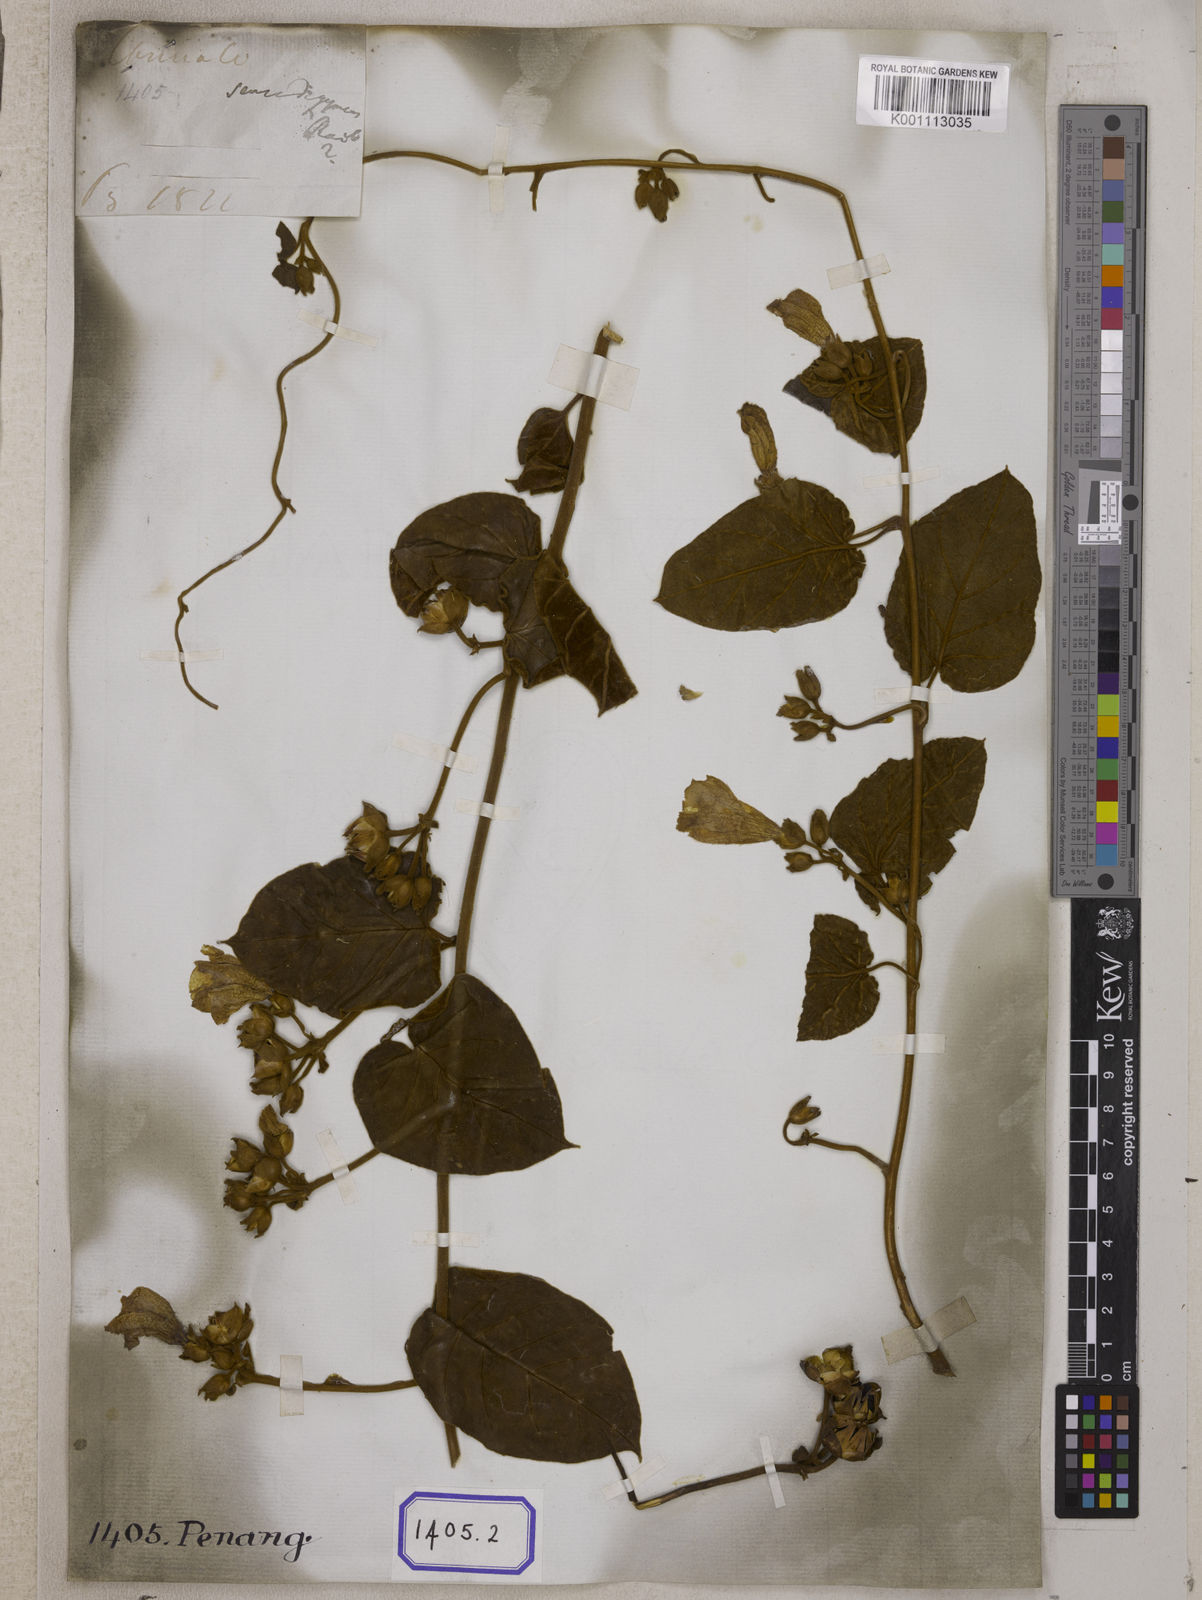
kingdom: Plantae
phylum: Tracheophyta
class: Magnoliopsida
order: Solanales
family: Convolvulaceae
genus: Bonamia
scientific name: Bonamia semidigyna
